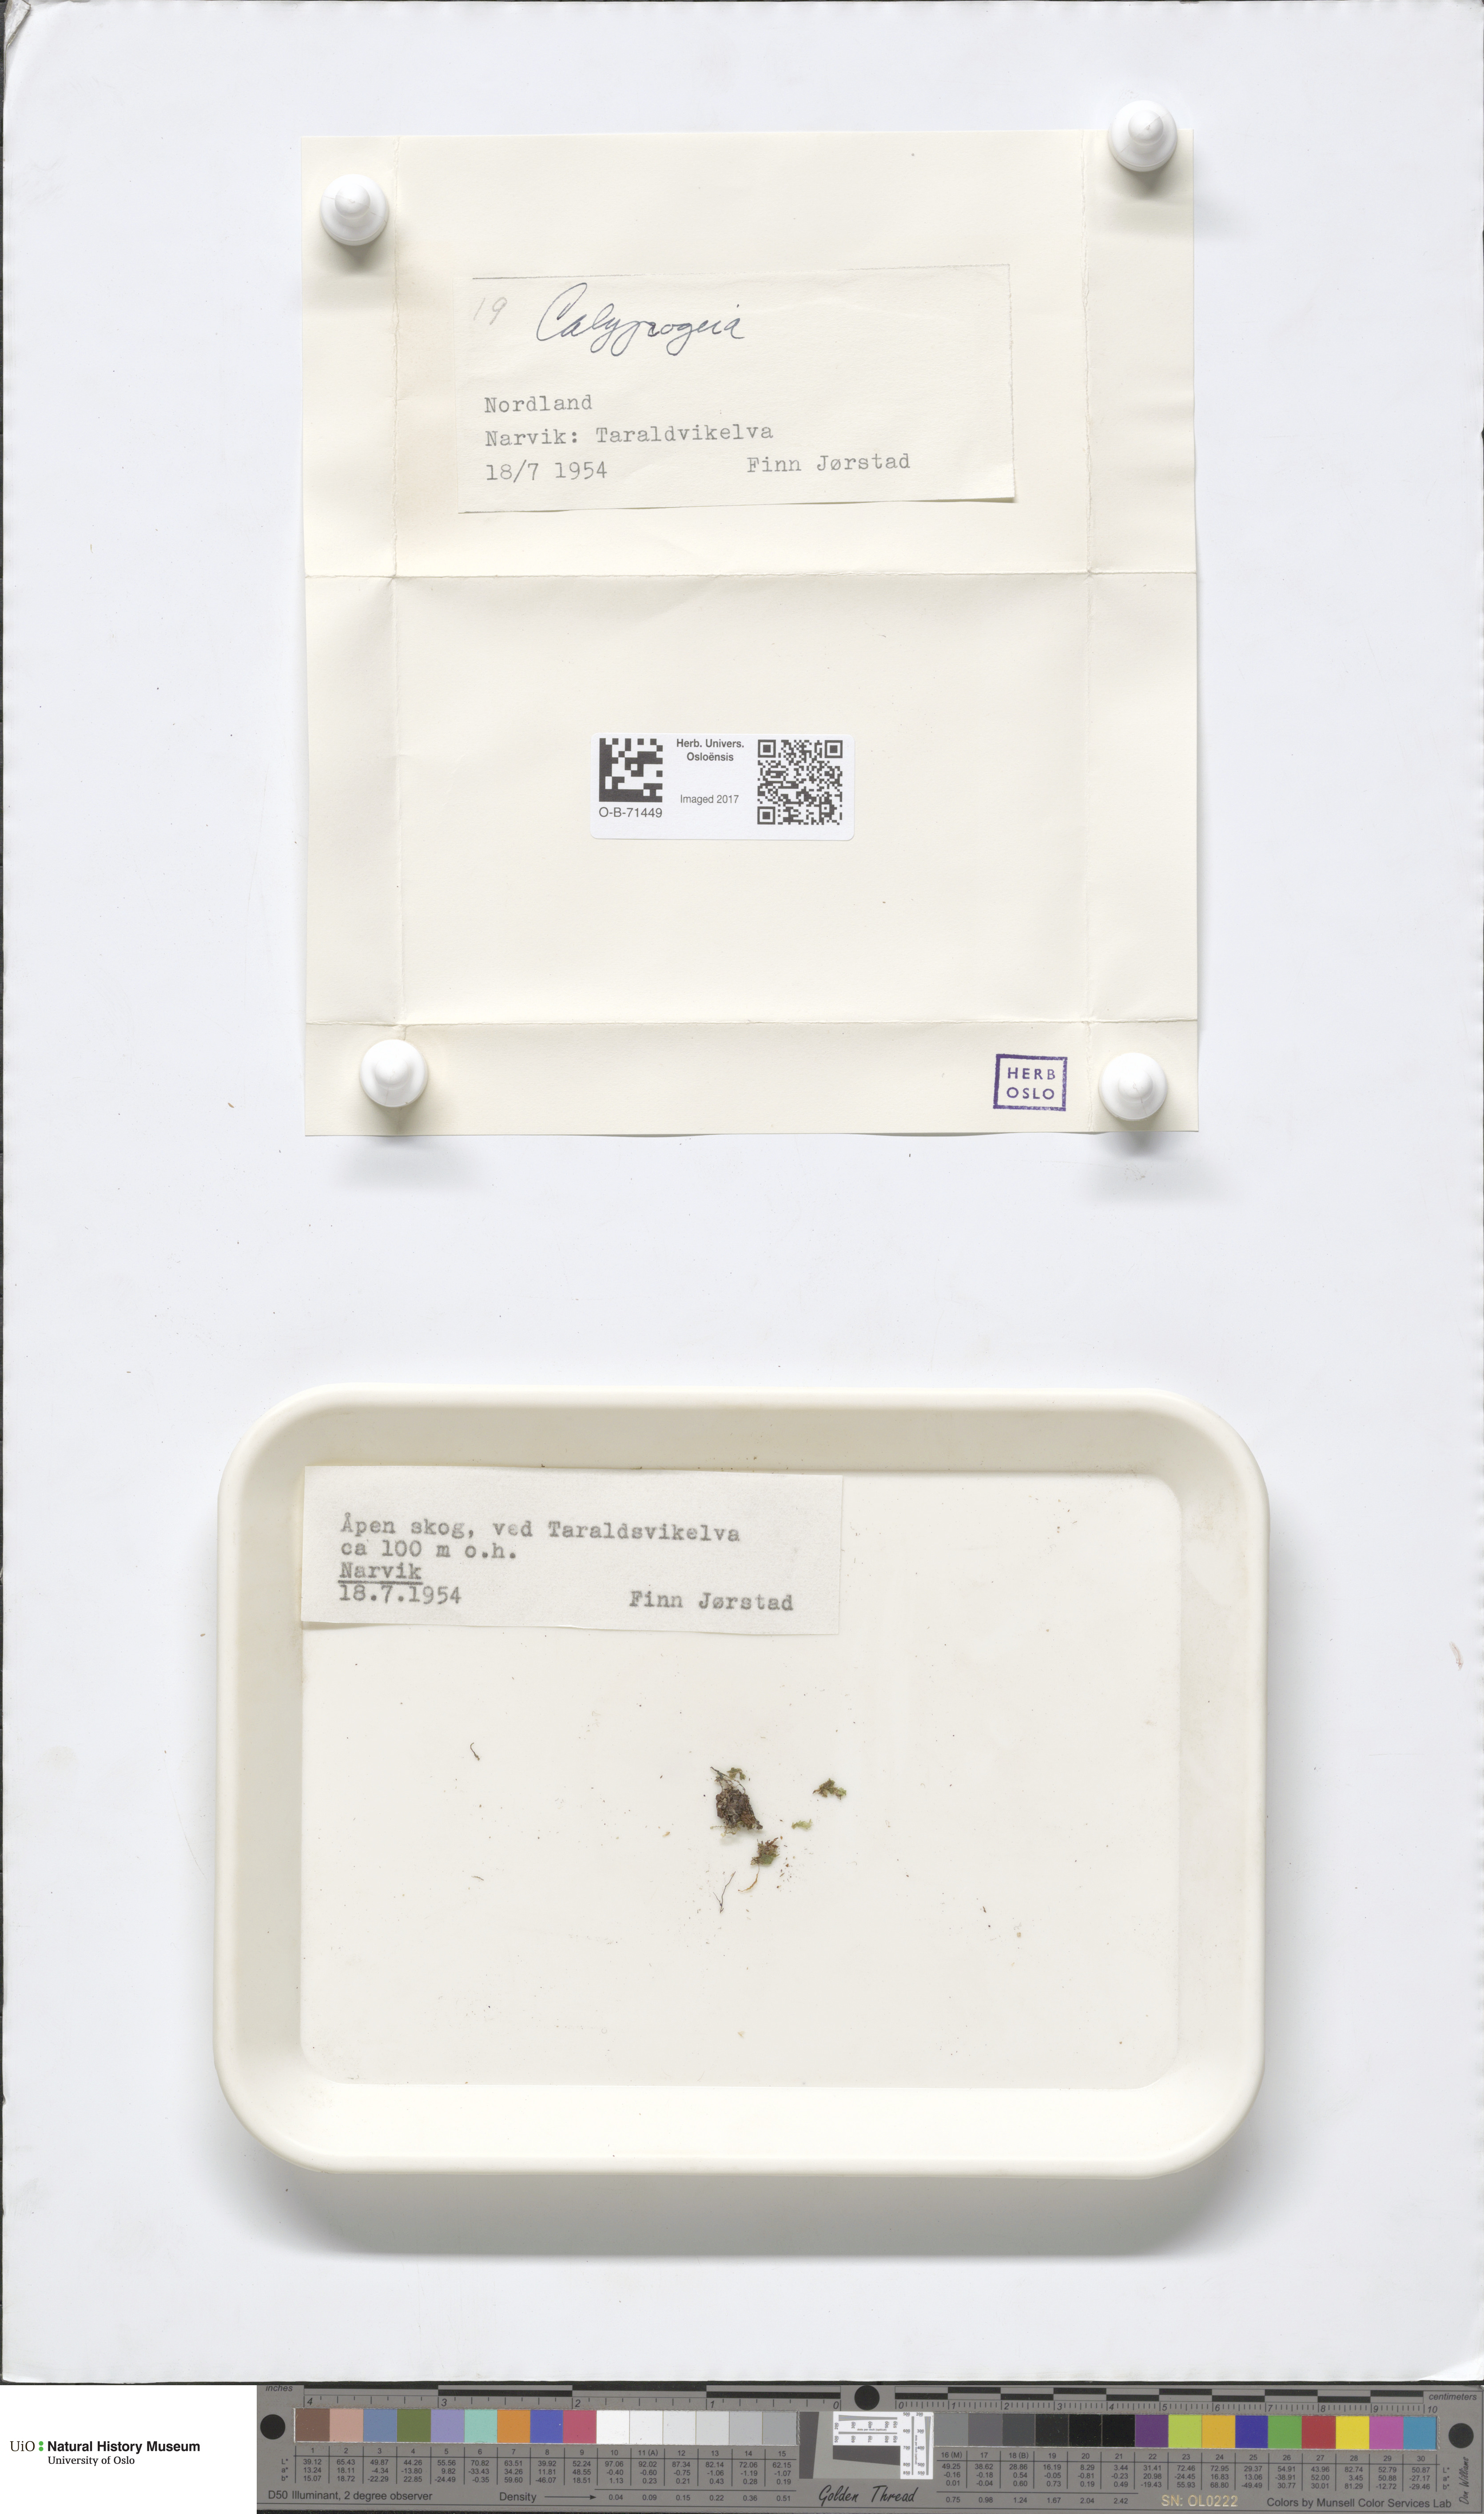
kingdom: Plantae
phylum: Marchantiophyta
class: Jungermanniopsida
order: Jungermanniales
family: Calypogeiaceae
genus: Calypogeia
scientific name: Calypogeia
